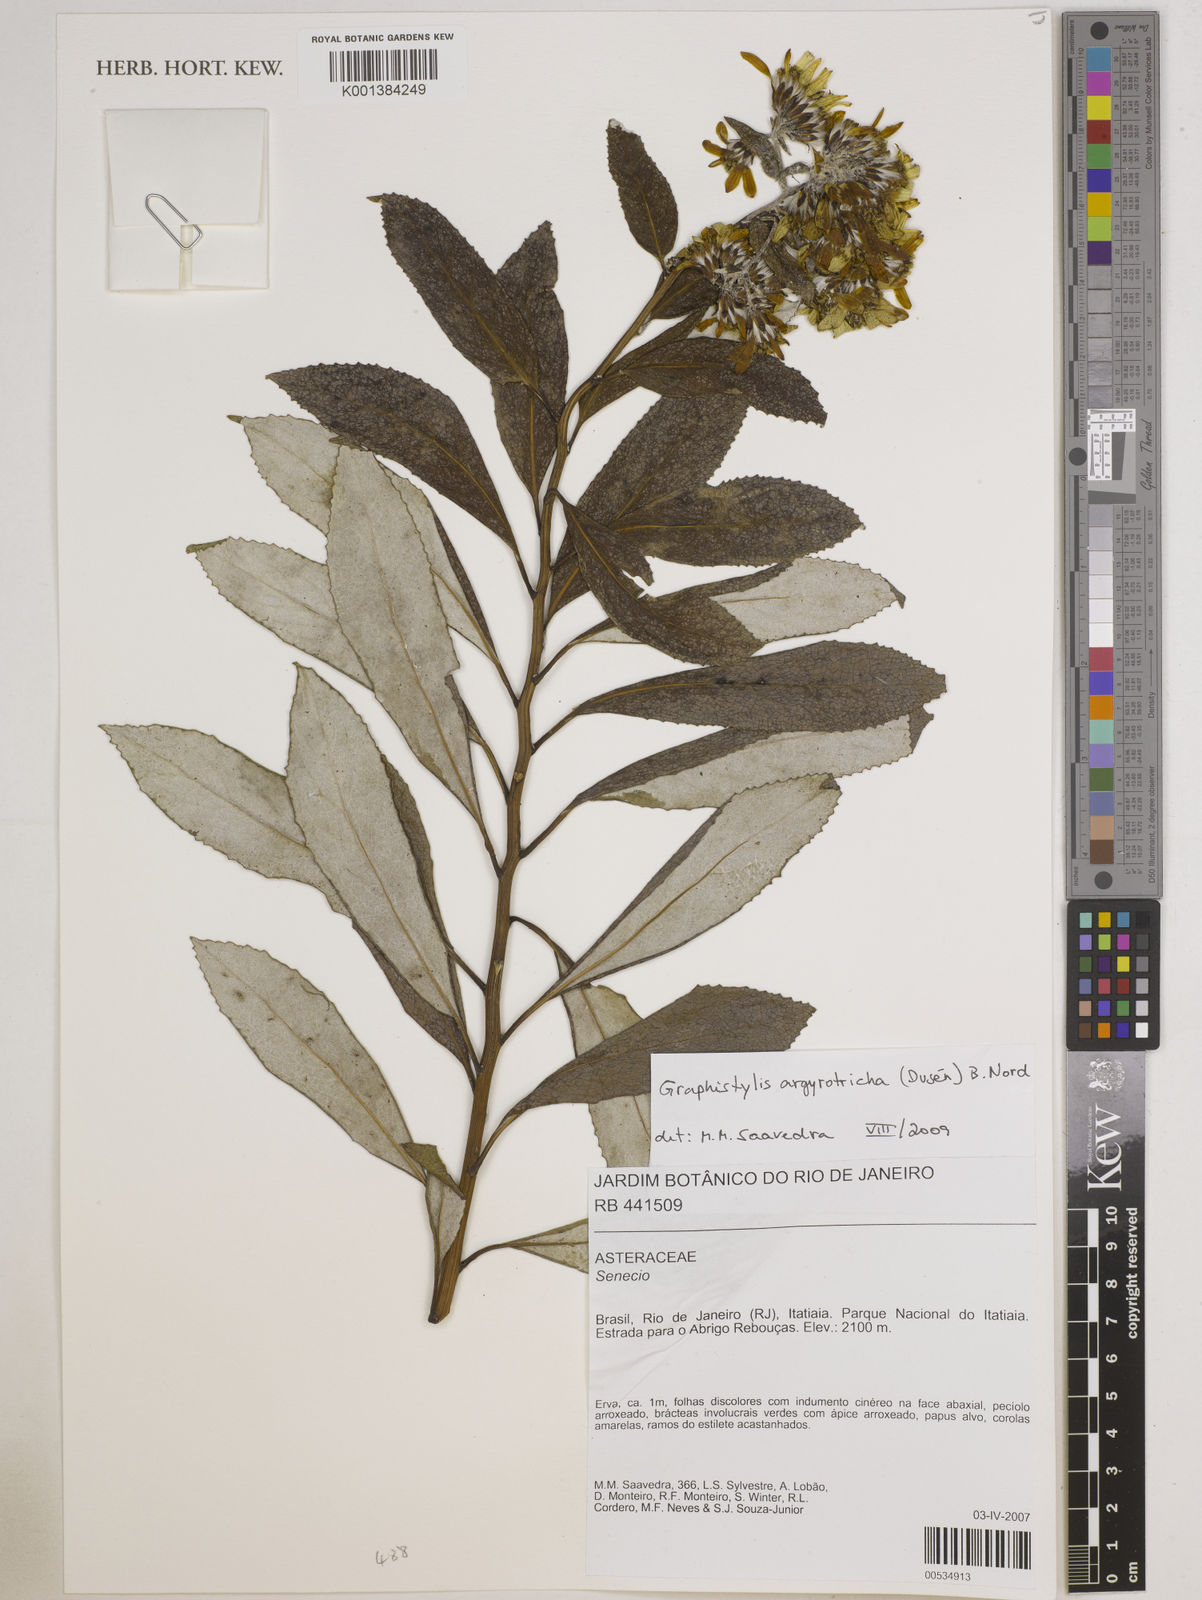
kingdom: Plantae
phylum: Tracheophyta
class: Magnoliopsida
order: Asterales
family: Asteraceae
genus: Graphistylis
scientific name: Graphistylis argyrotricha
